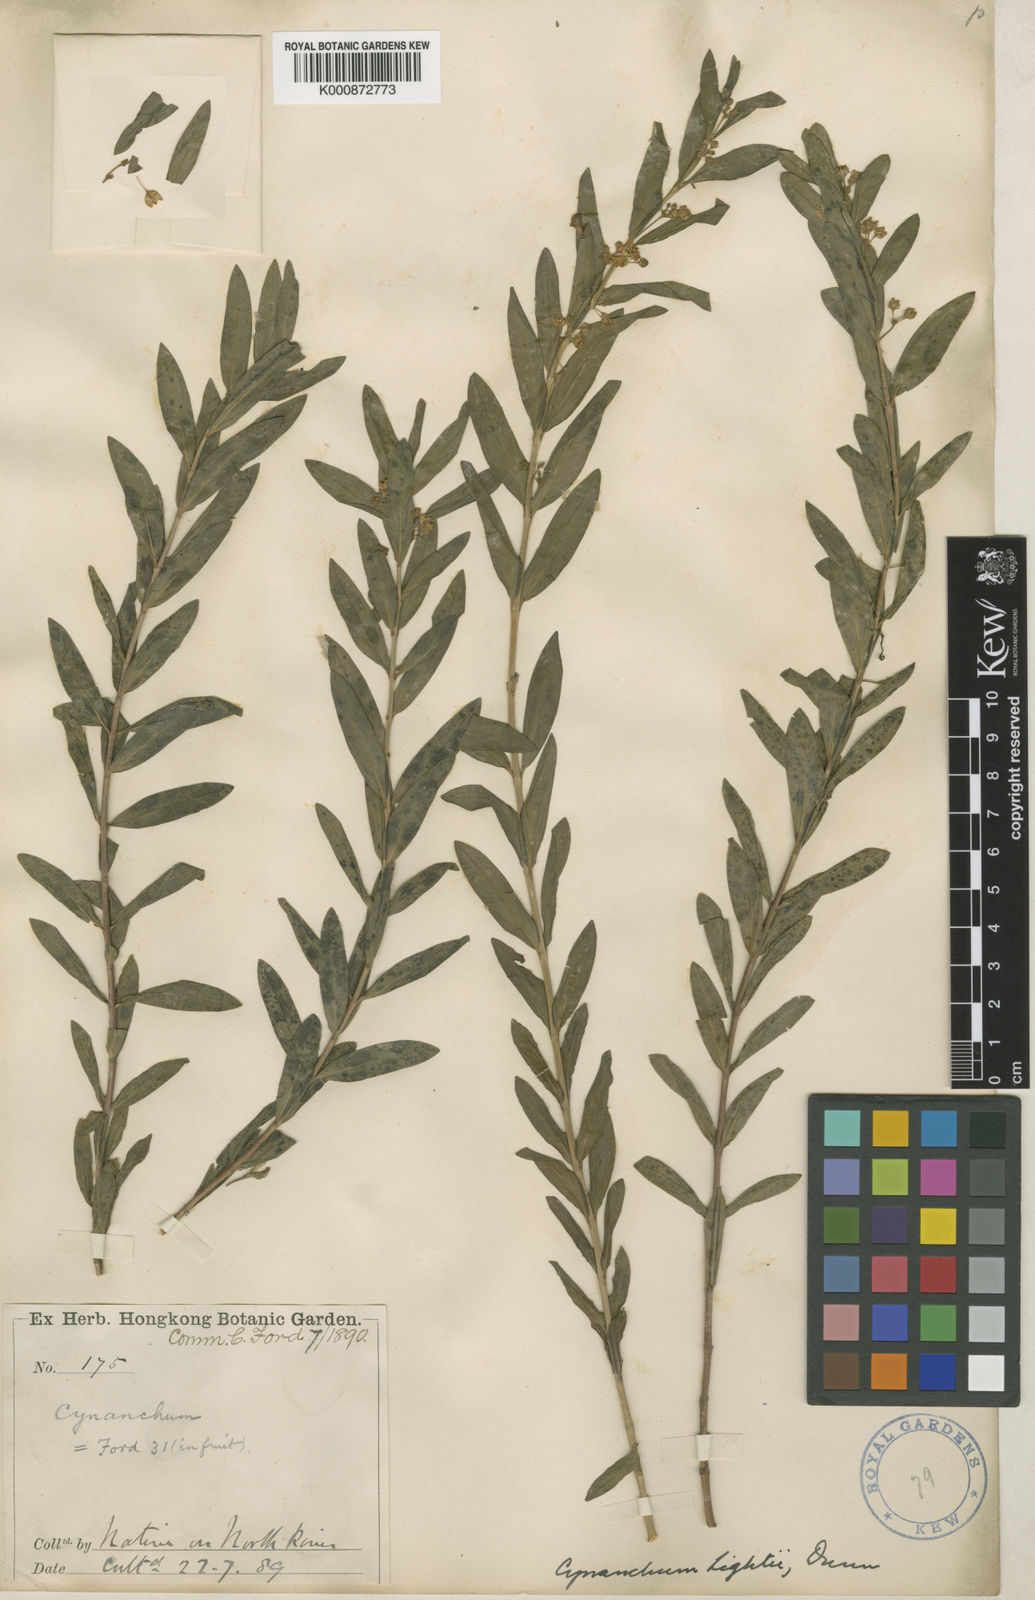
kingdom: Plantae
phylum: Tracheophyta
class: Magnoliopsida
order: Gentianales
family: Apocynaceae
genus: Vincetoxicum
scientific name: Vincetoxicum glaucescens
